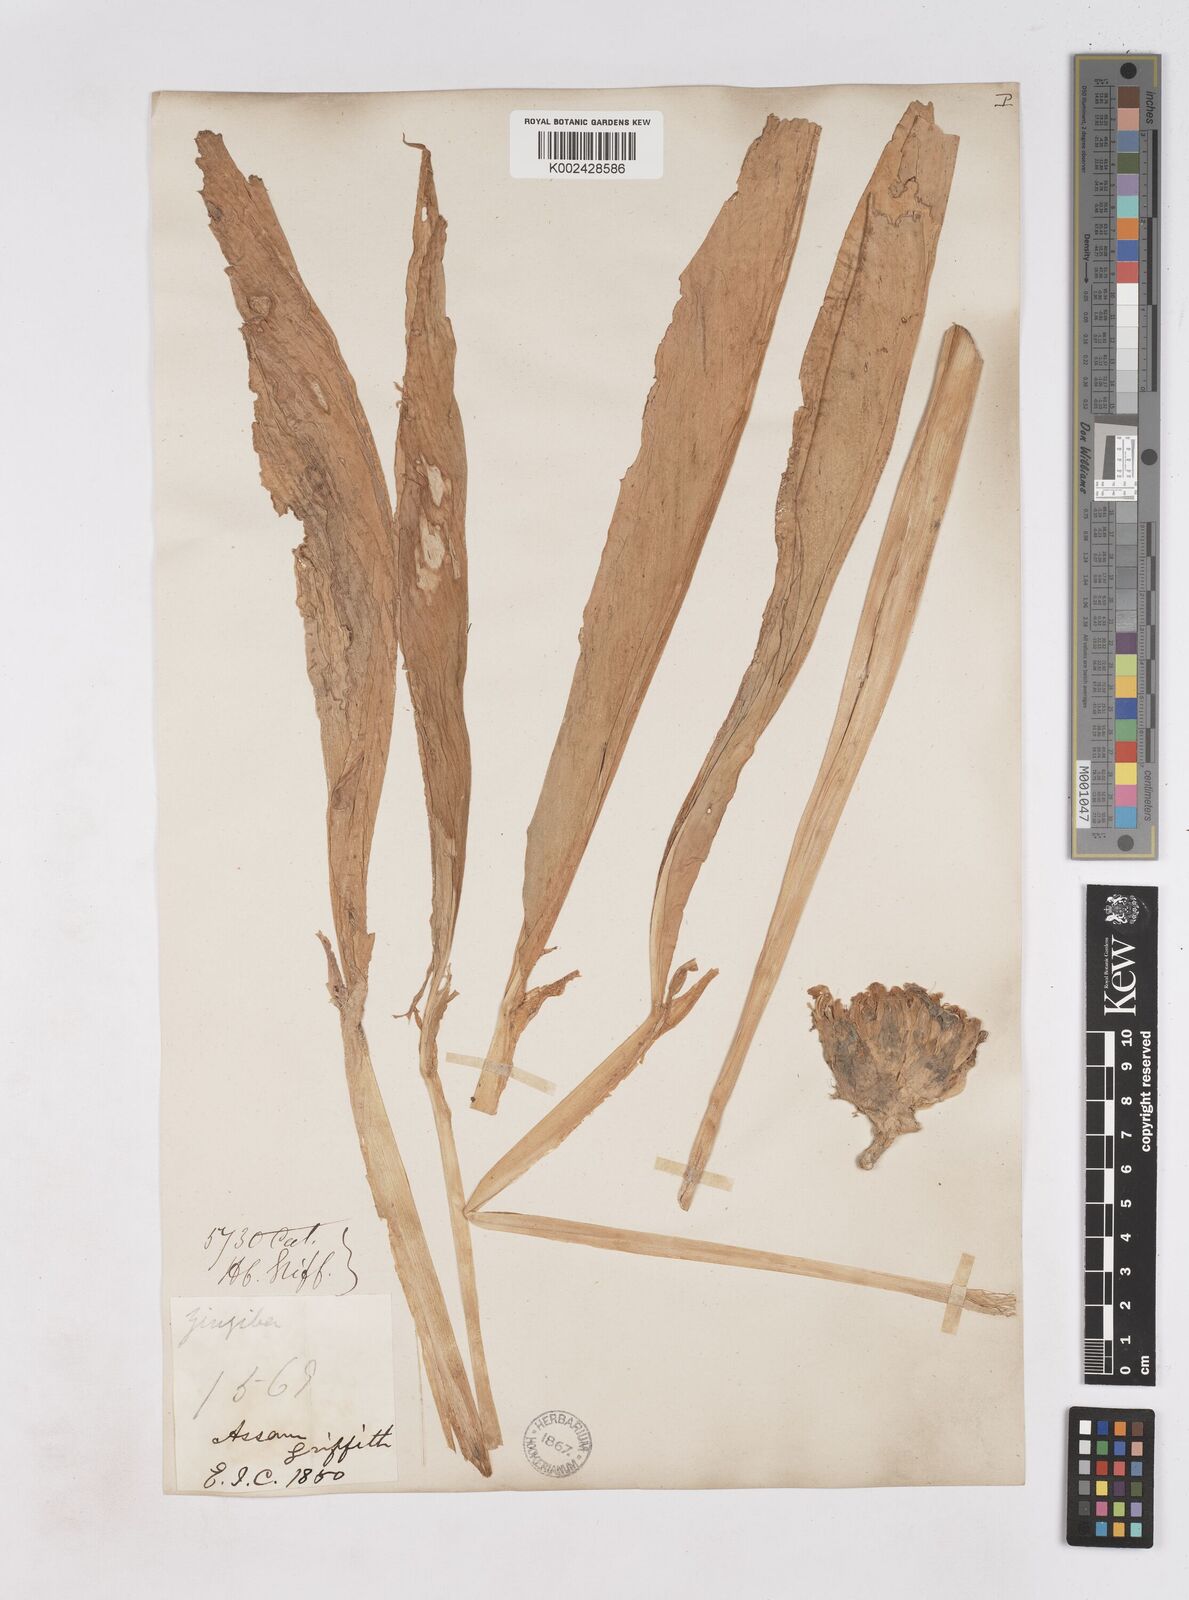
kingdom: Plantae
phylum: Tracheophyta
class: Liliopsida
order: Zingiberales
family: Zingiberaceae
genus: Zingiber
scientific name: Zingiber chrysanthum
